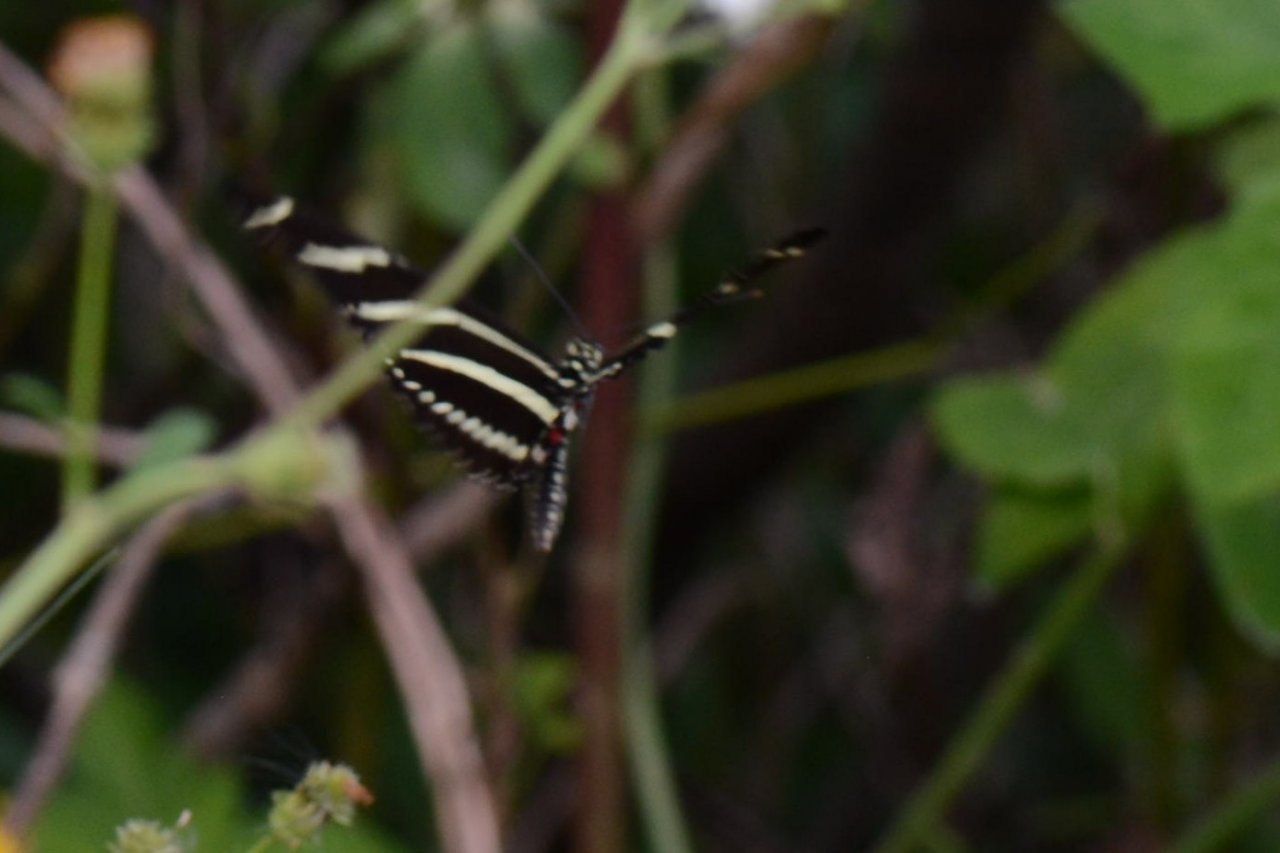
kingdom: Animalia
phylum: Arthropoda
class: Insecta
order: Lepidoptera
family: Nymphalidae
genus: Heliconius
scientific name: Heliconius charithonia
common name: Zebra Longwing
